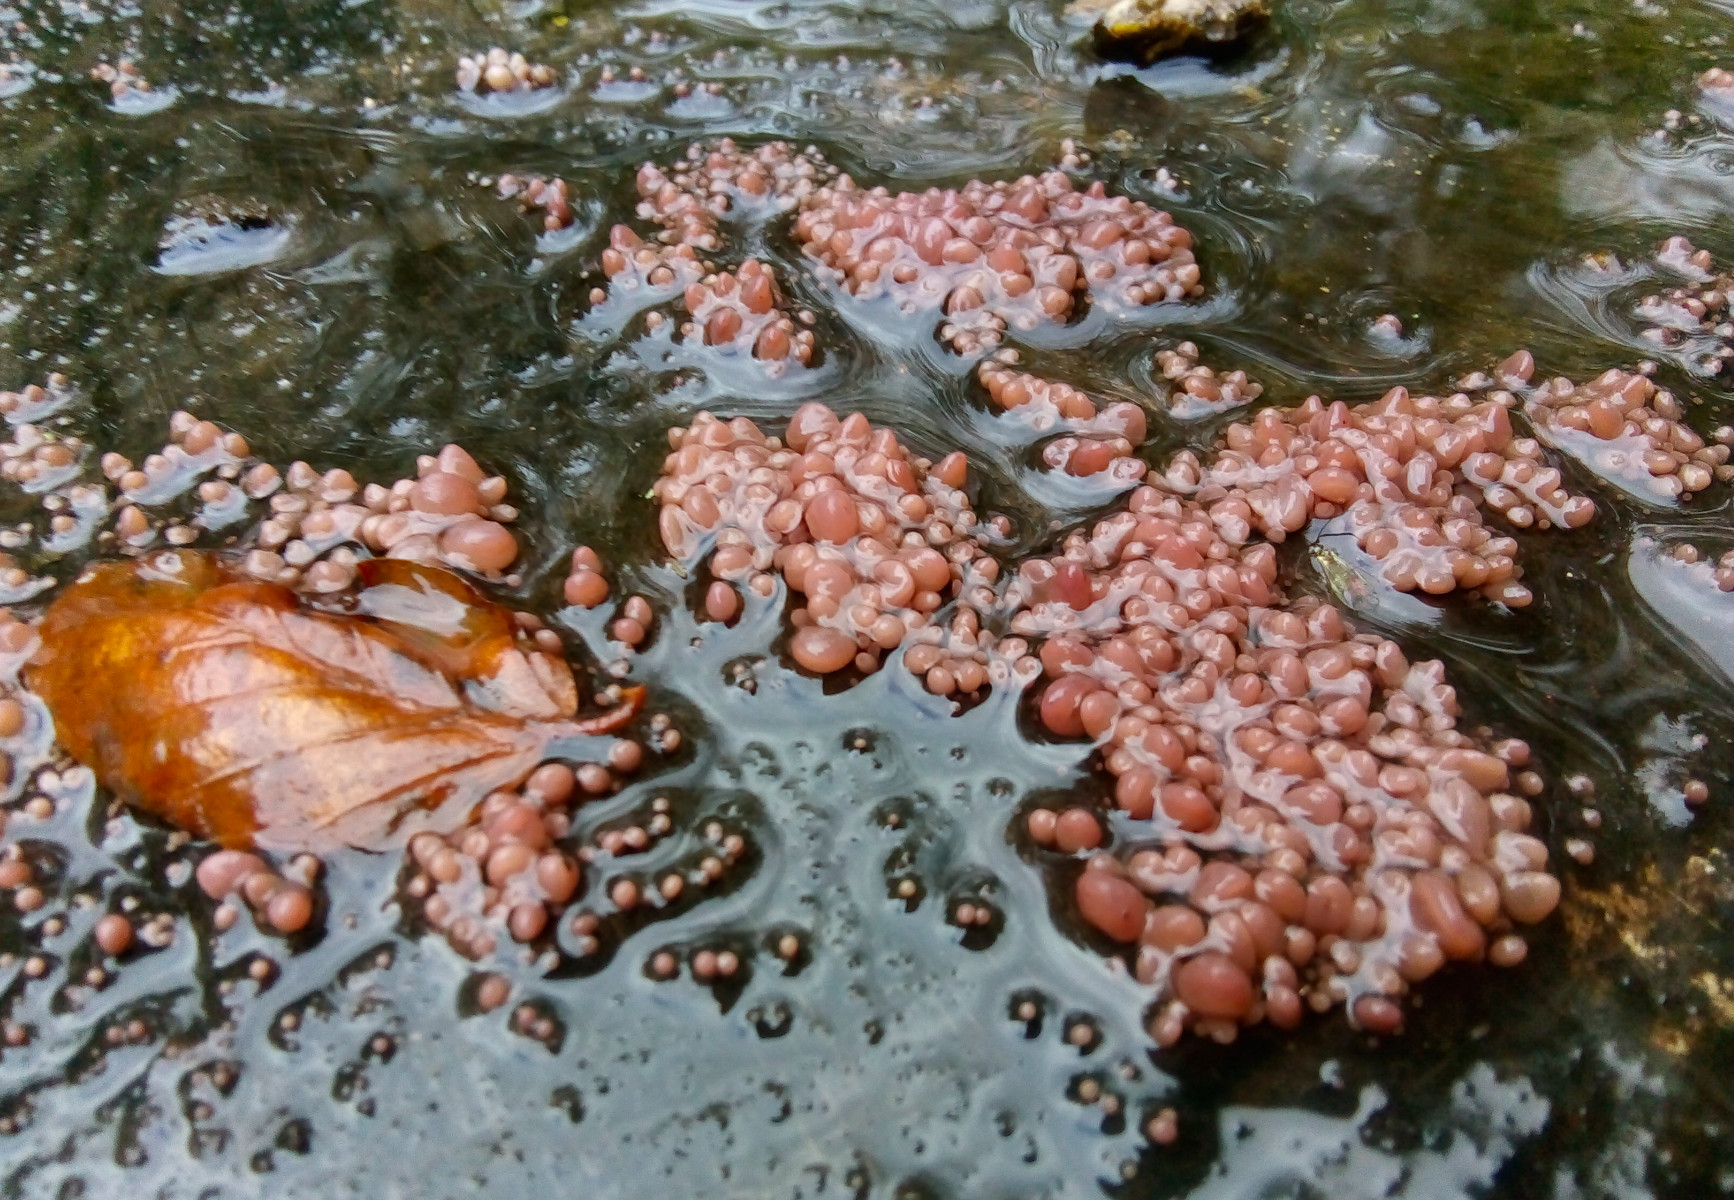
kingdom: Fungi
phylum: Ascomycota
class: Leotiomycetes
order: Helotiales
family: Gelatinodiscaceae
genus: Ascocoryne
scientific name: Ascocoryne sarcoides
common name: rødlilla sejskive
